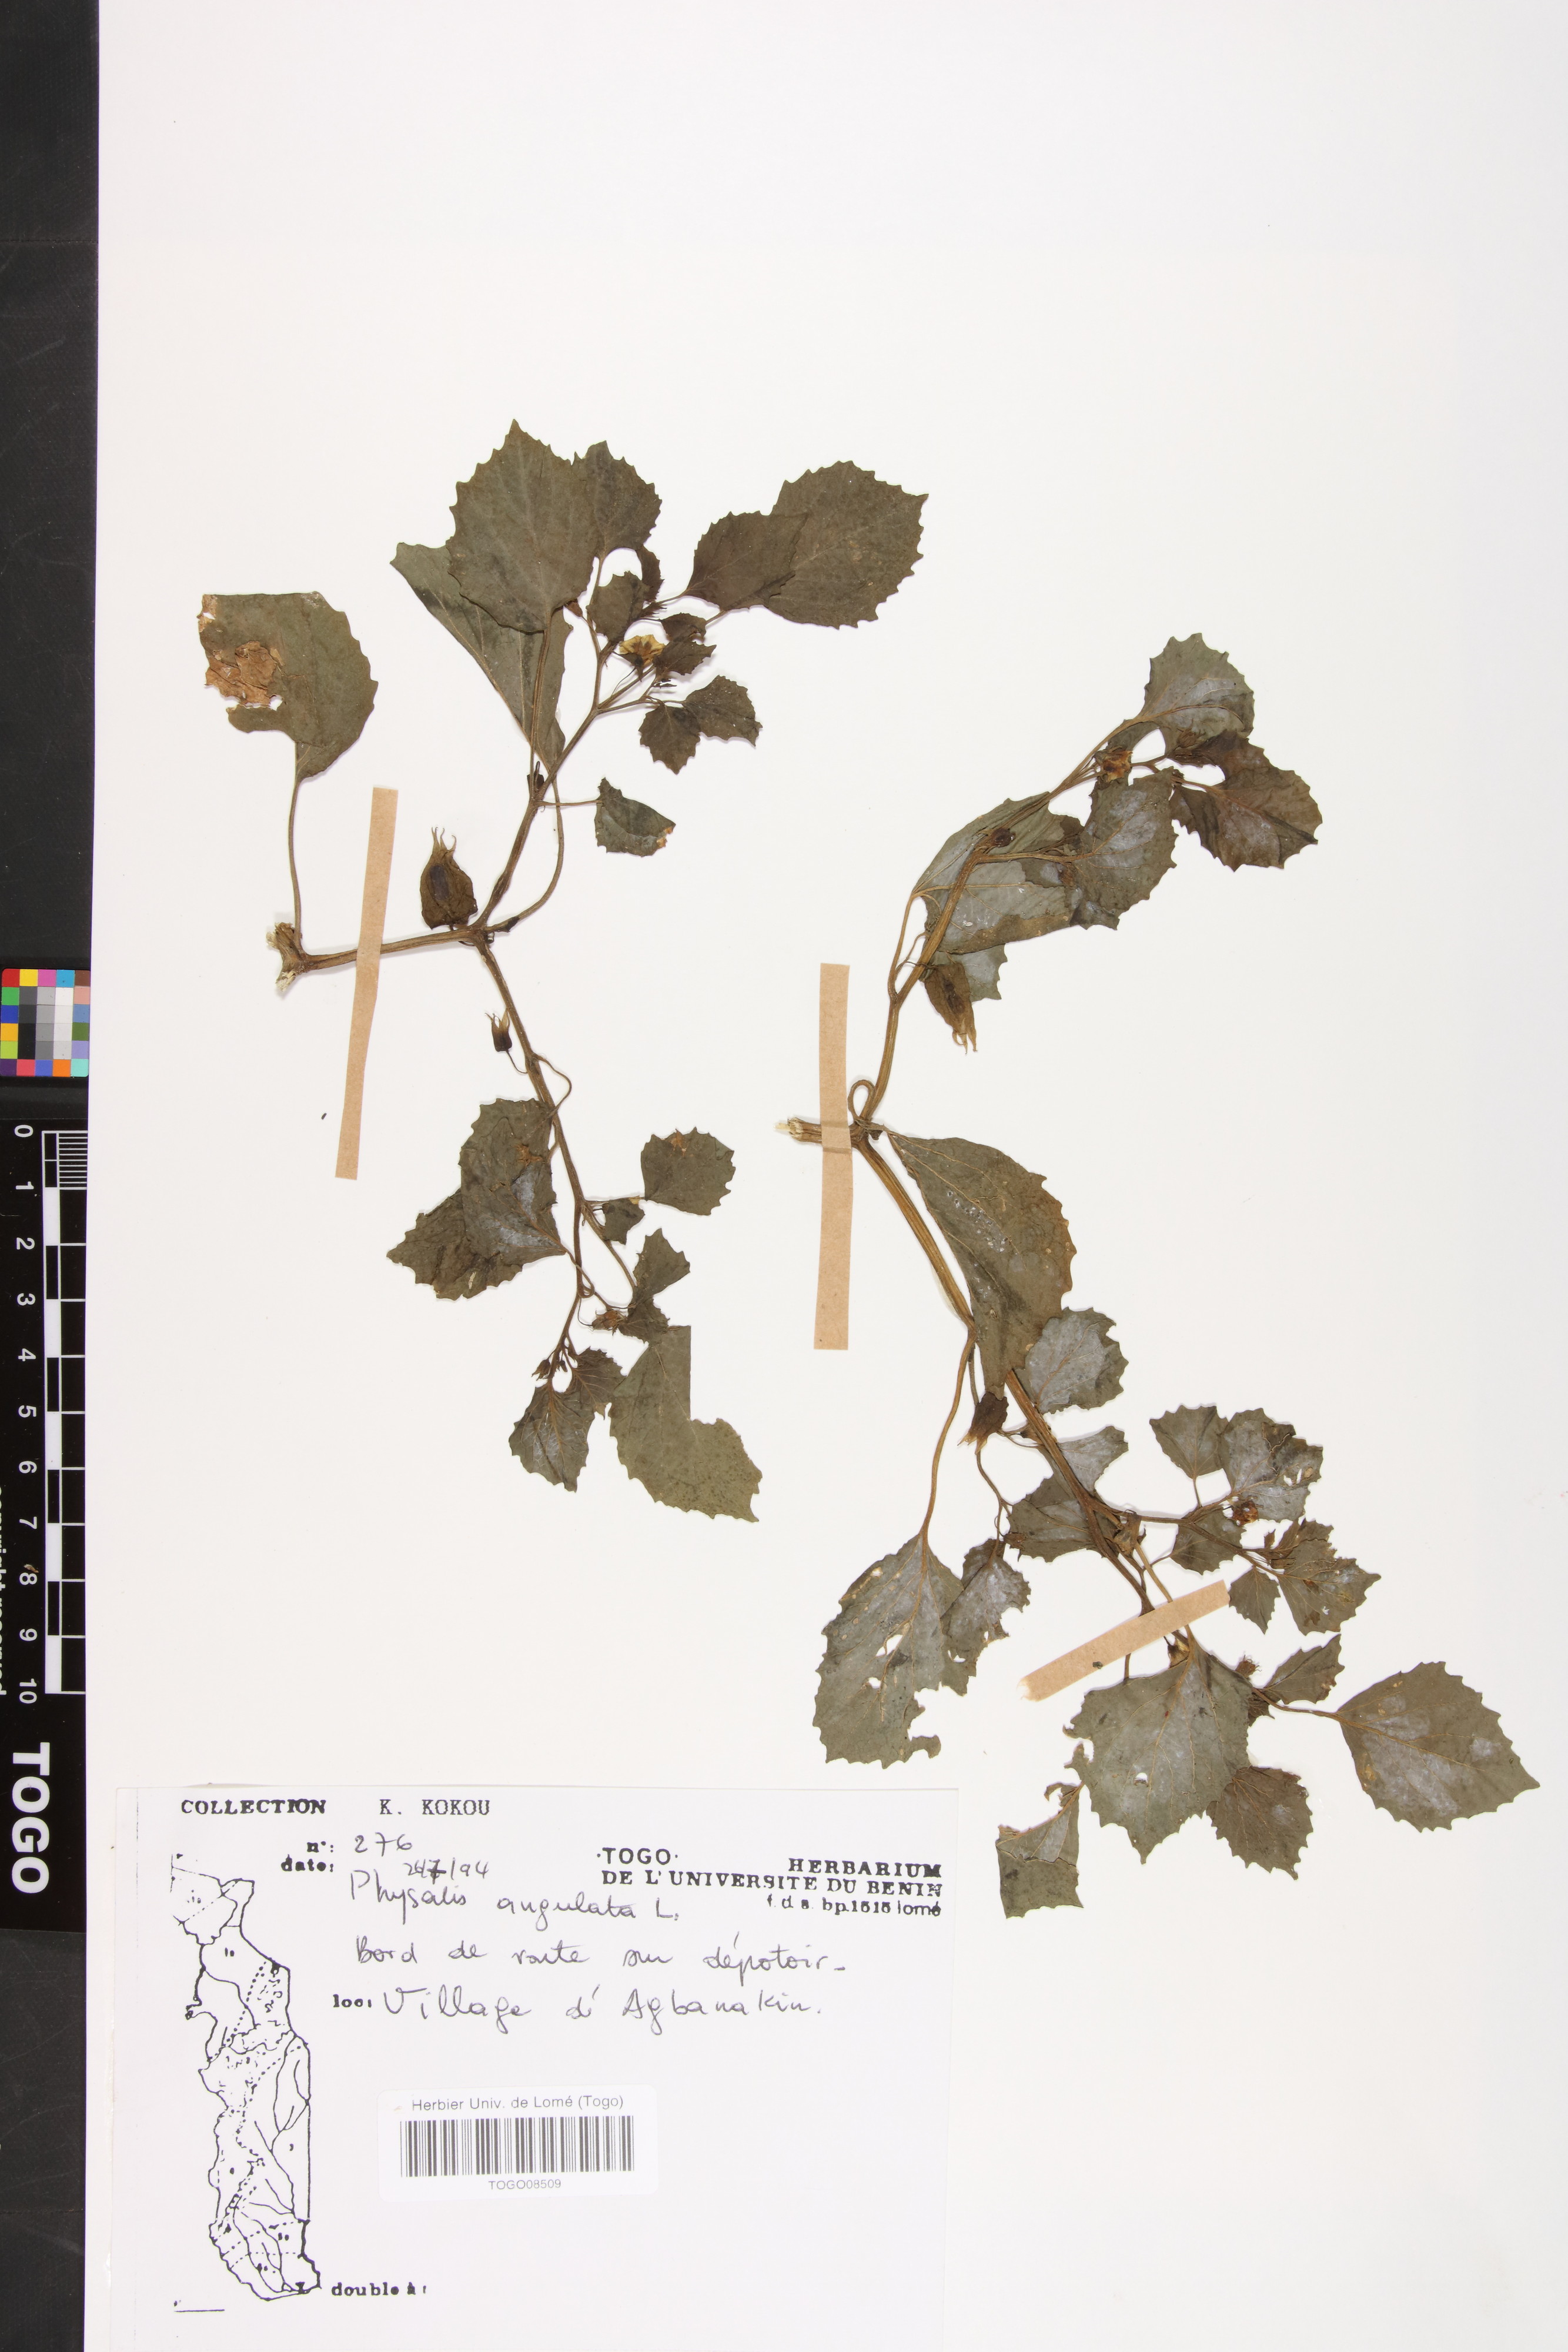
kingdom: Plantae
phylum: Tracheophyta
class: Magnoliopsida
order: Solanales
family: Solanaceae
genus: Physalis
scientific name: Physalis angulata
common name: Angular winter-cherry
